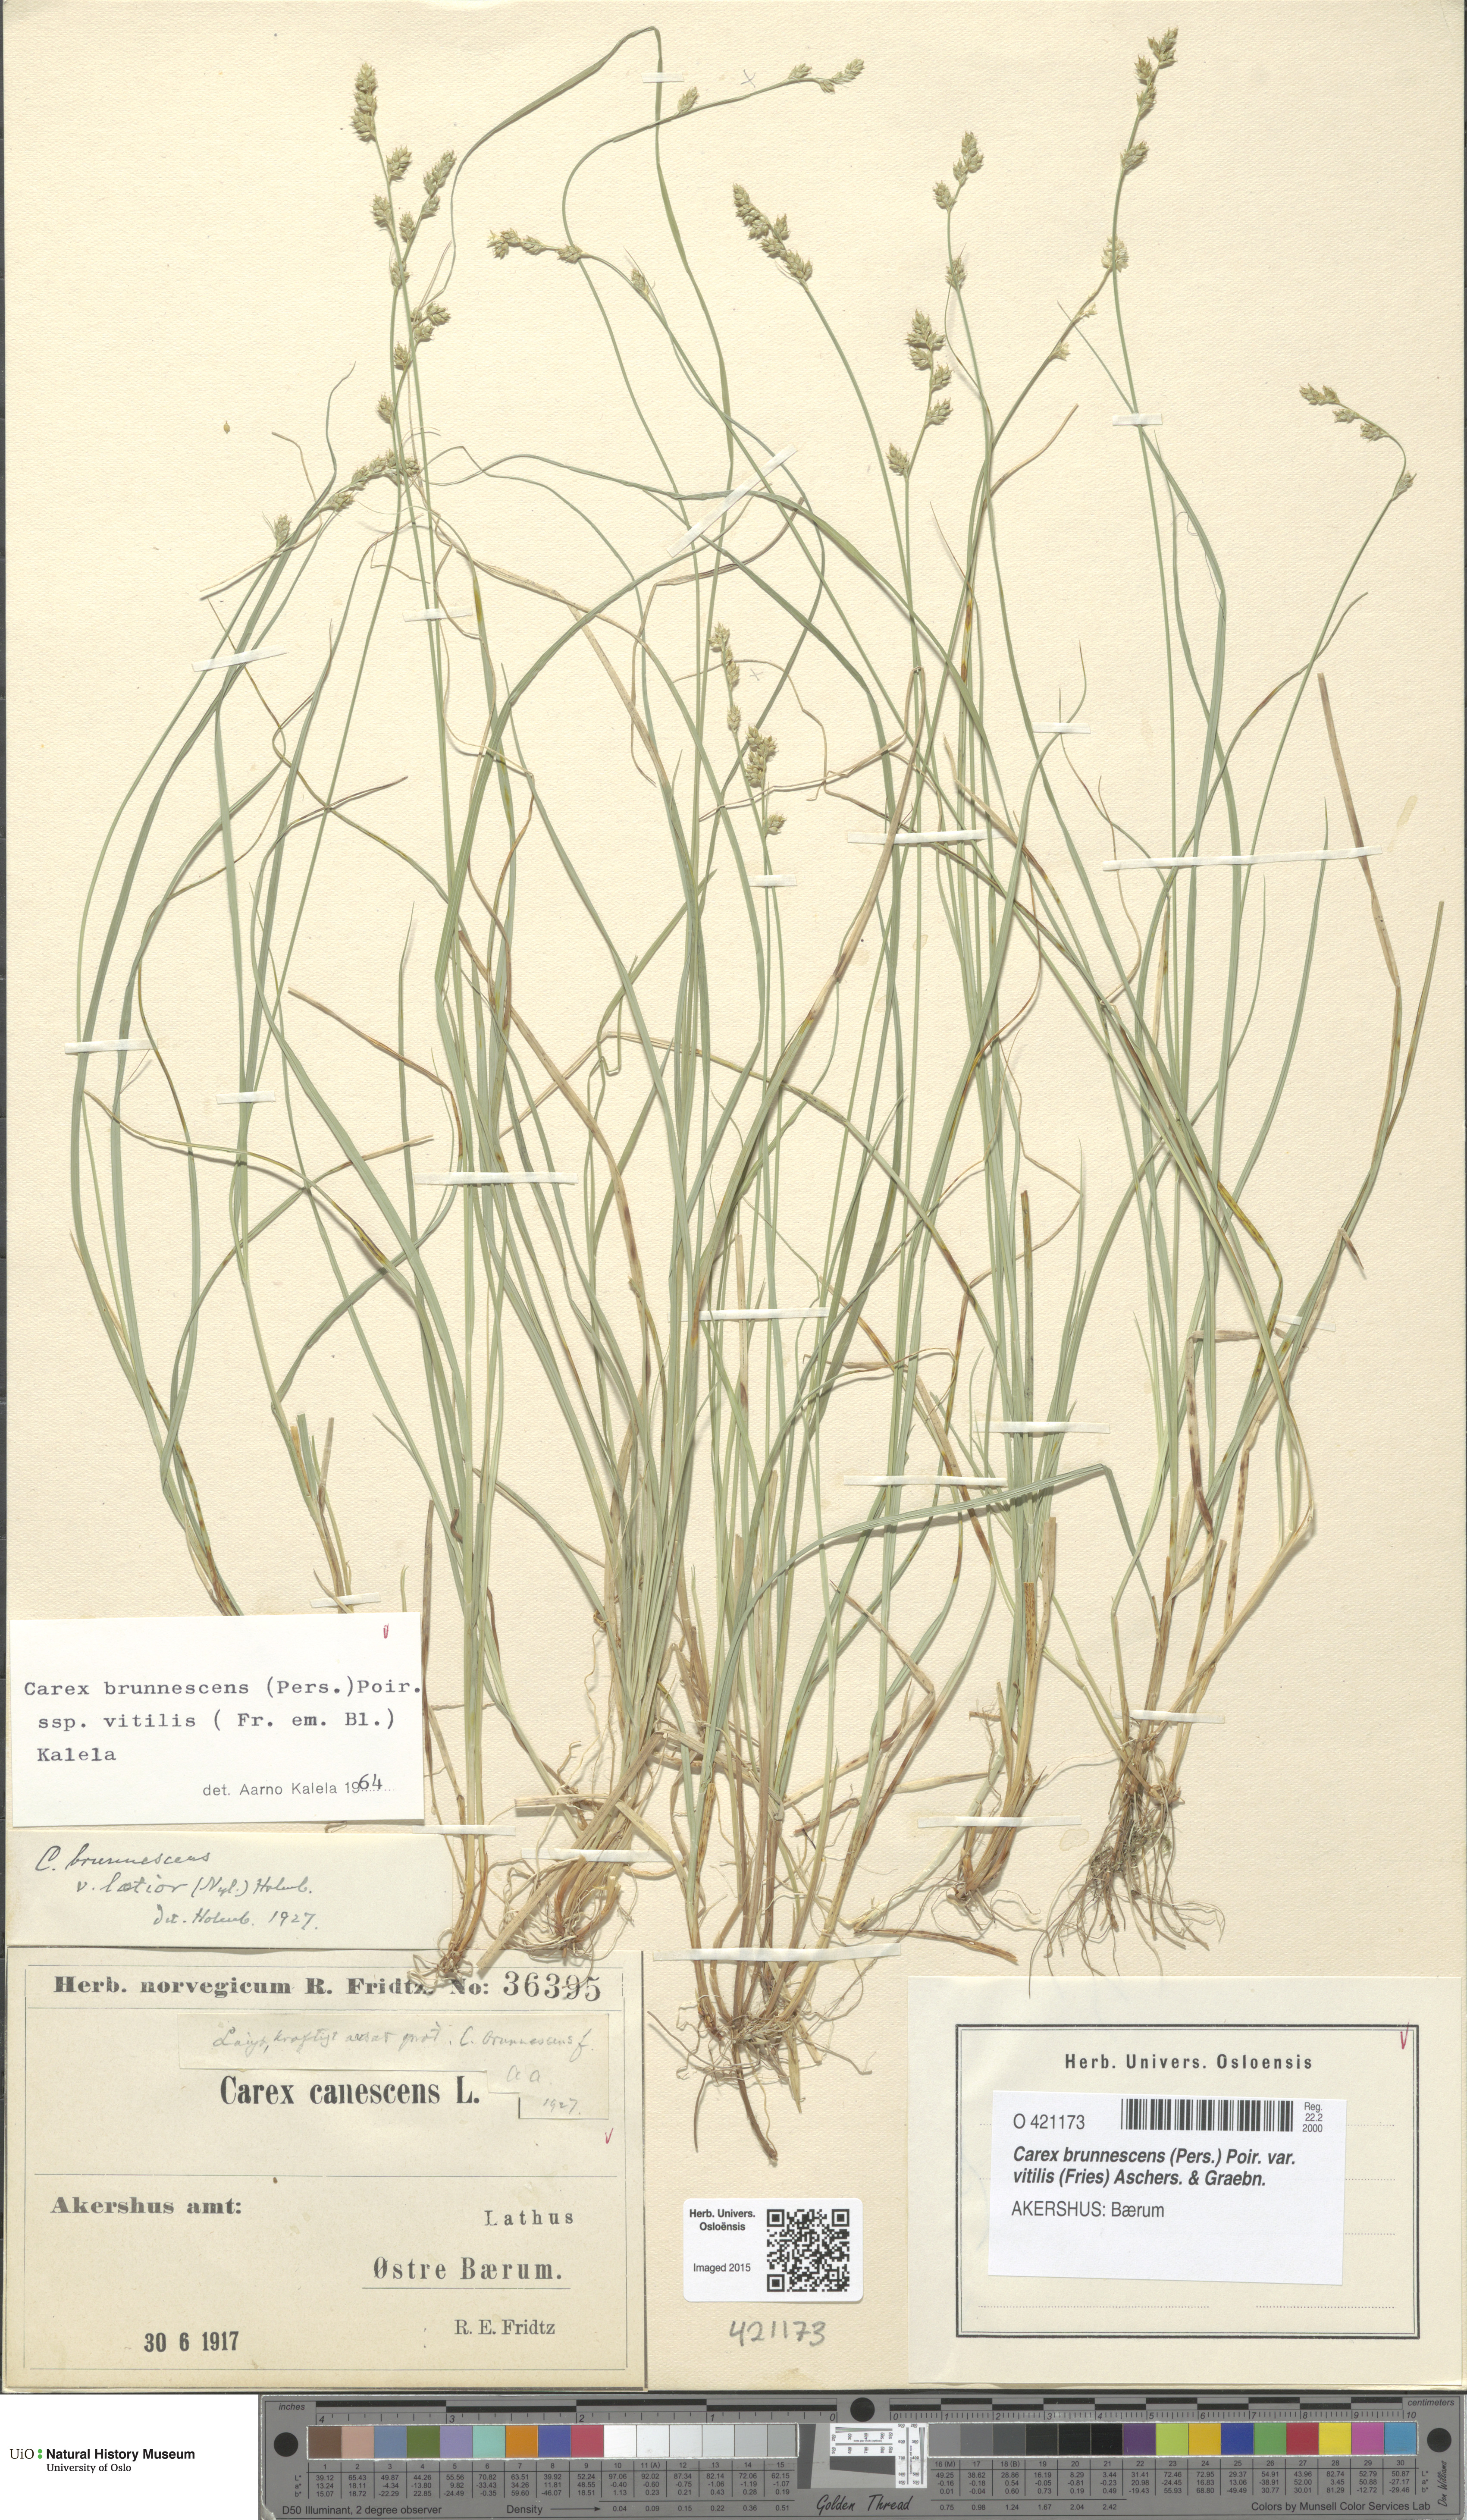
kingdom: Plantae
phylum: Tracheophyta
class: Liliopsida
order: Poales
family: Cyperaceae
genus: Carex
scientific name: Carex brunnescens
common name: Brown sedge
